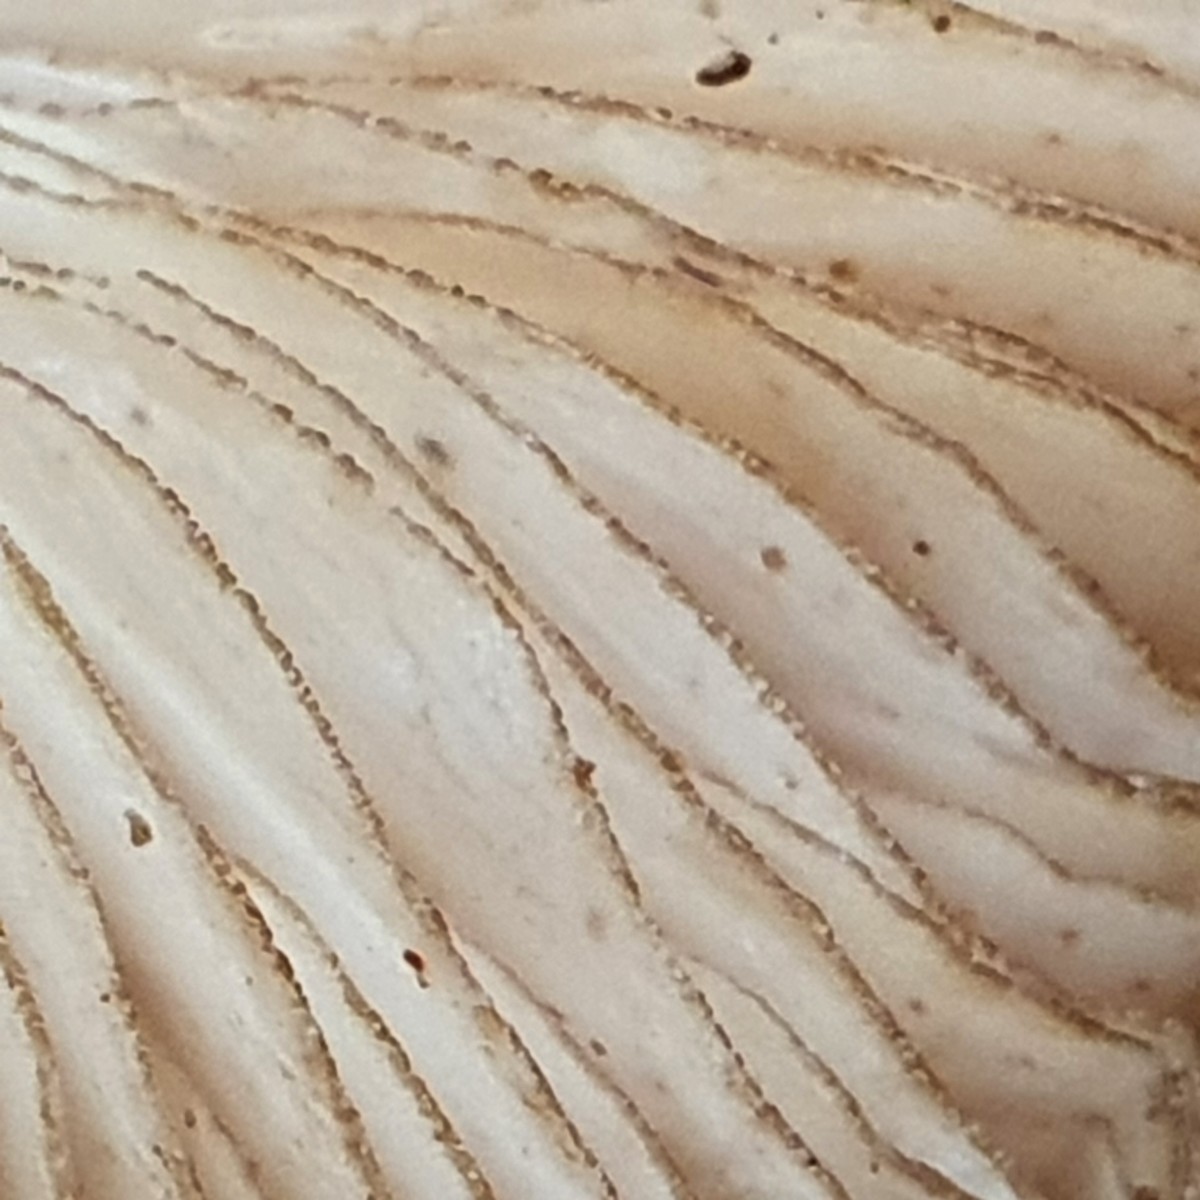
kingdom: Fungi
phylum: Basidiomycota
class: Agaricomycetes
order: Agaricales
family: Pluteaceae
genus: Pluteus
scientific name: Pluteus umbrosus
